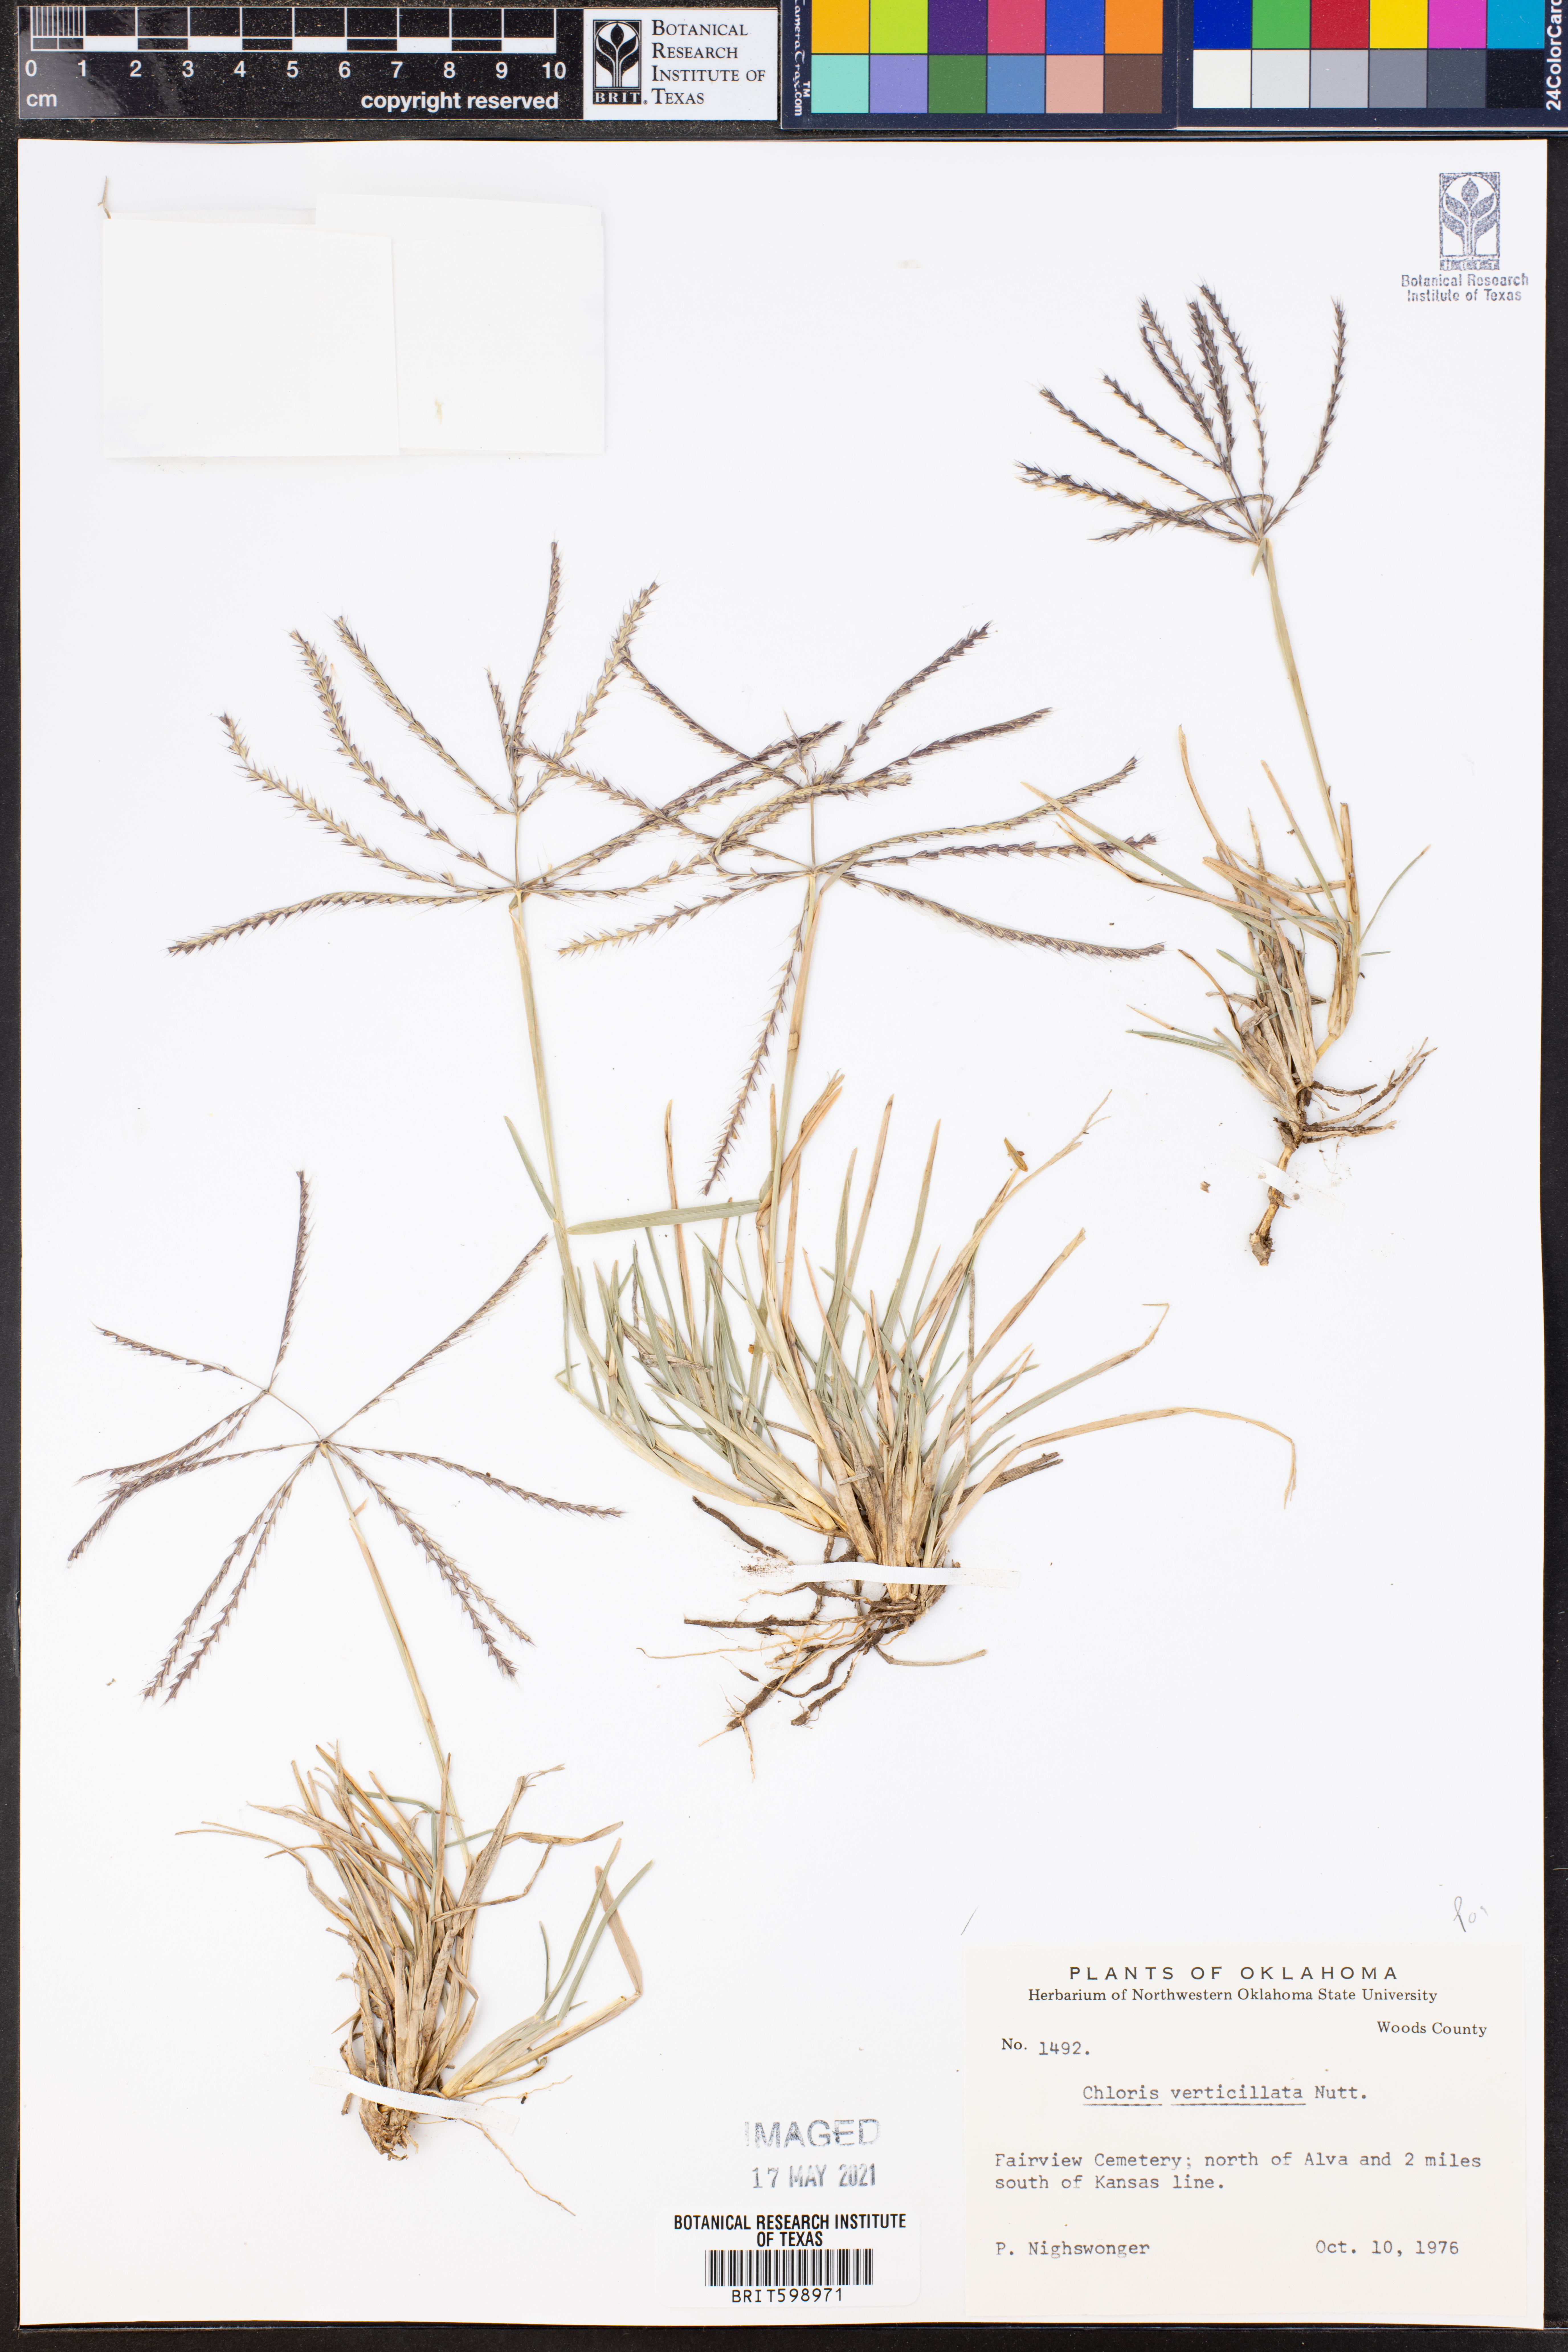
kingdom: Plantae
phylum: Tracheophyta
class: Liliopsida
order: Poales
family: Poaceae
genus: Chloris
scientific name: Chloris verticillata
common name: Tumble windmill grass
